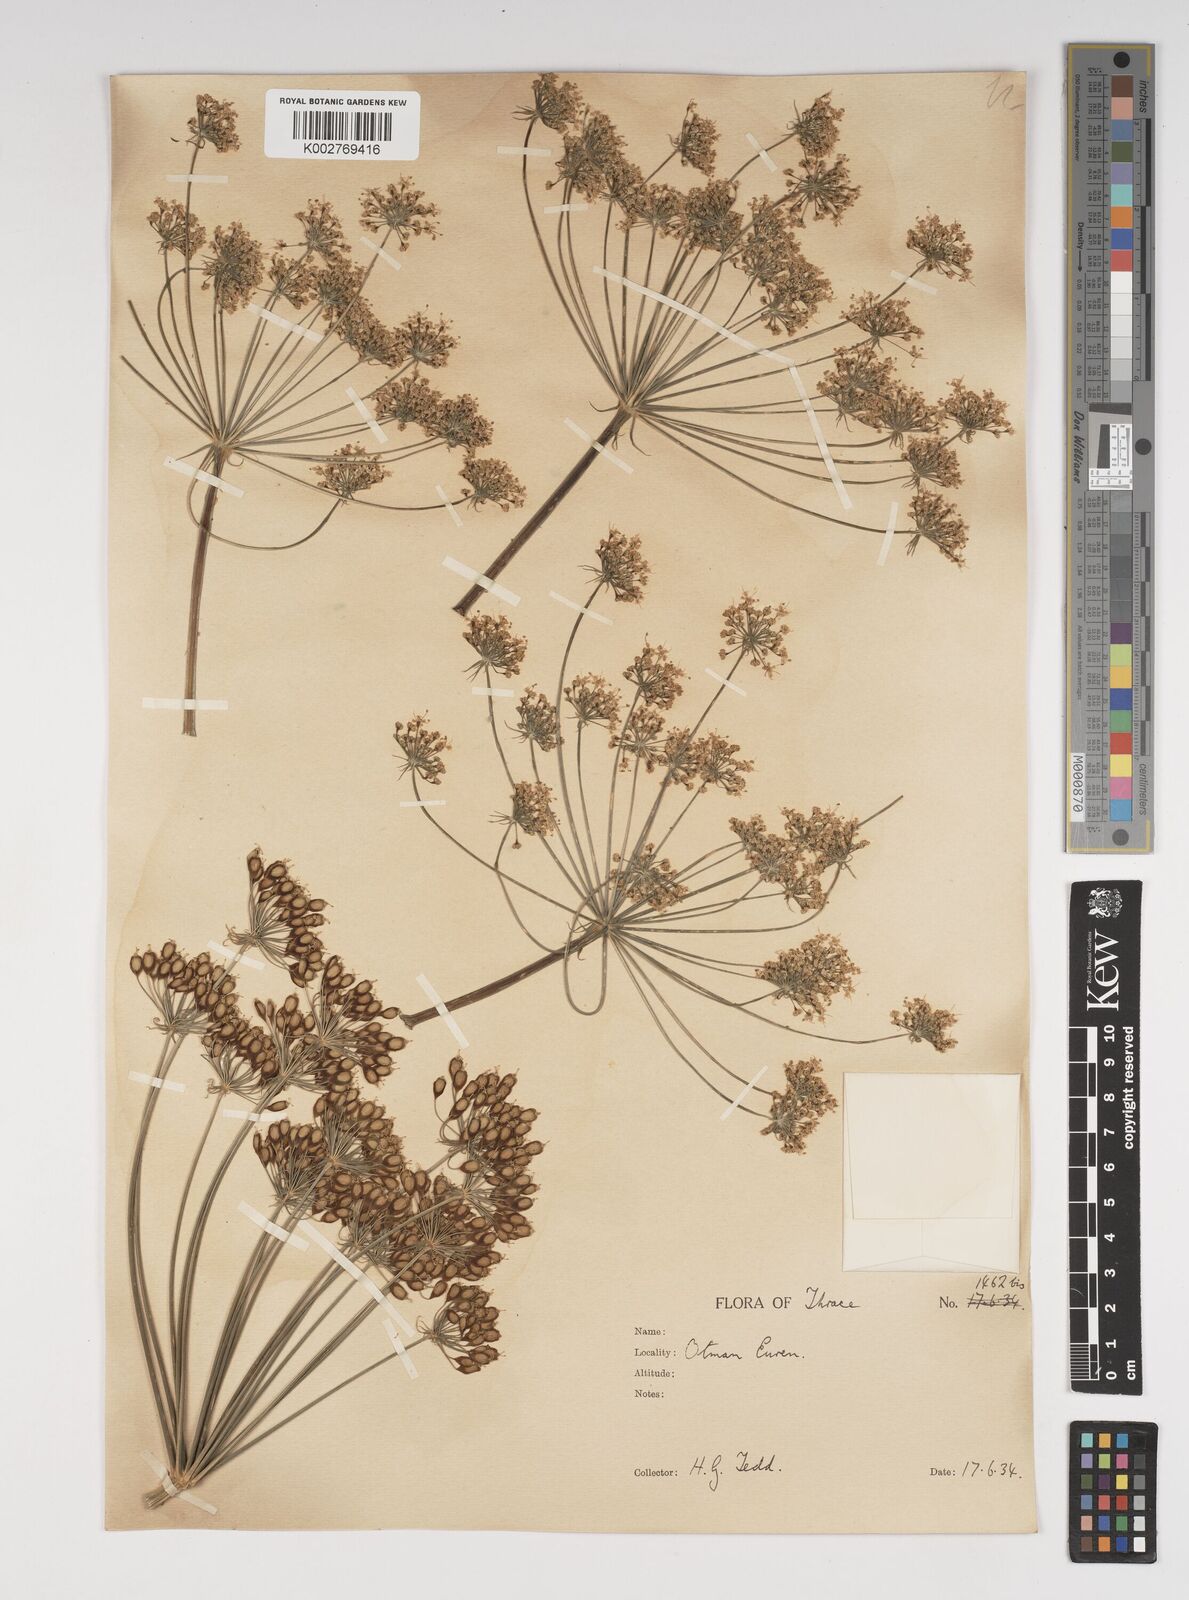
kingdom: Plantae
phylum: Tracheophyta
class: Magnoliopsida
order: Apiales
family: Apiaceae
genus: Heracleum
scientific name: Heracleum sphondylium
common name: Hogweed
